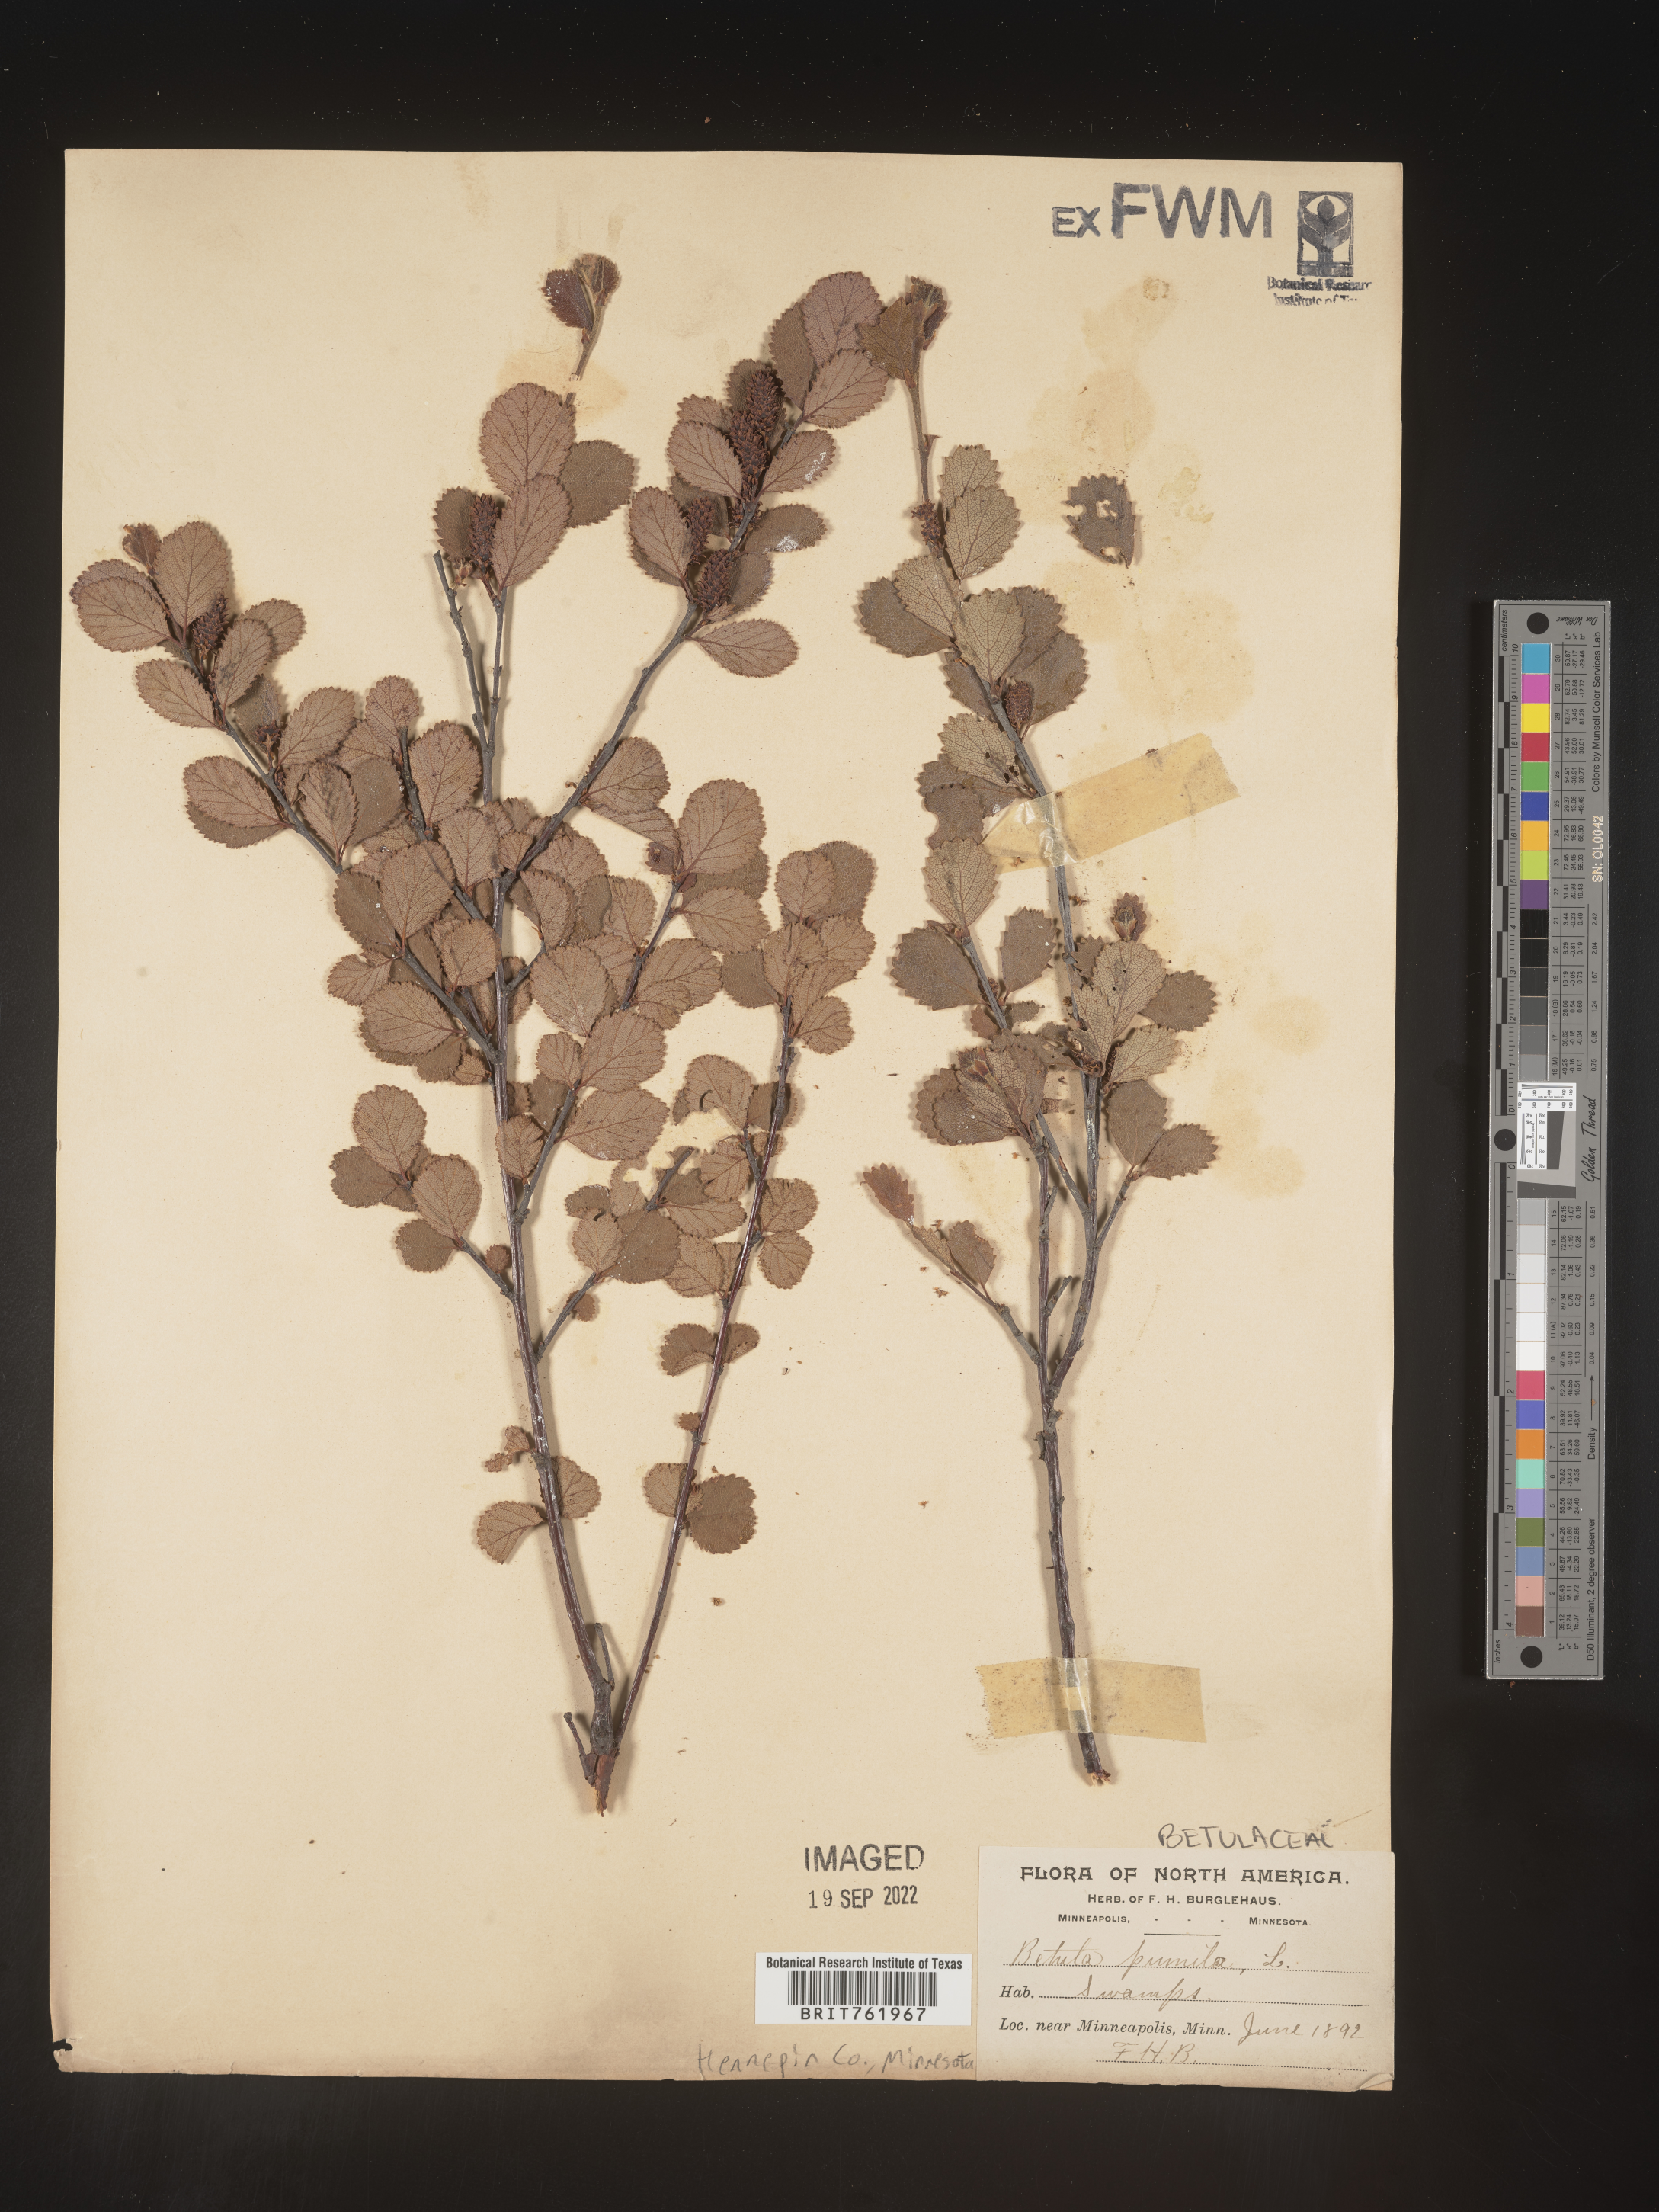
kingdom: Plantae
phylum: Tracheophyta
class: Magnoliopsida
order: Fagales
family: Betulaceae
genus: Betula
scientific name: Betula pumila
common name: Bog birch
